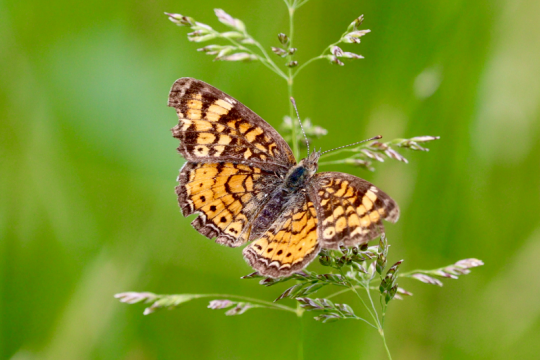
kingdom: Animalia
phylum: Arthropoda
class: Insecta
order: Lepidoptera
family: Nymphalidae
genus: Phyciodes
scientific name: Phyciodes
